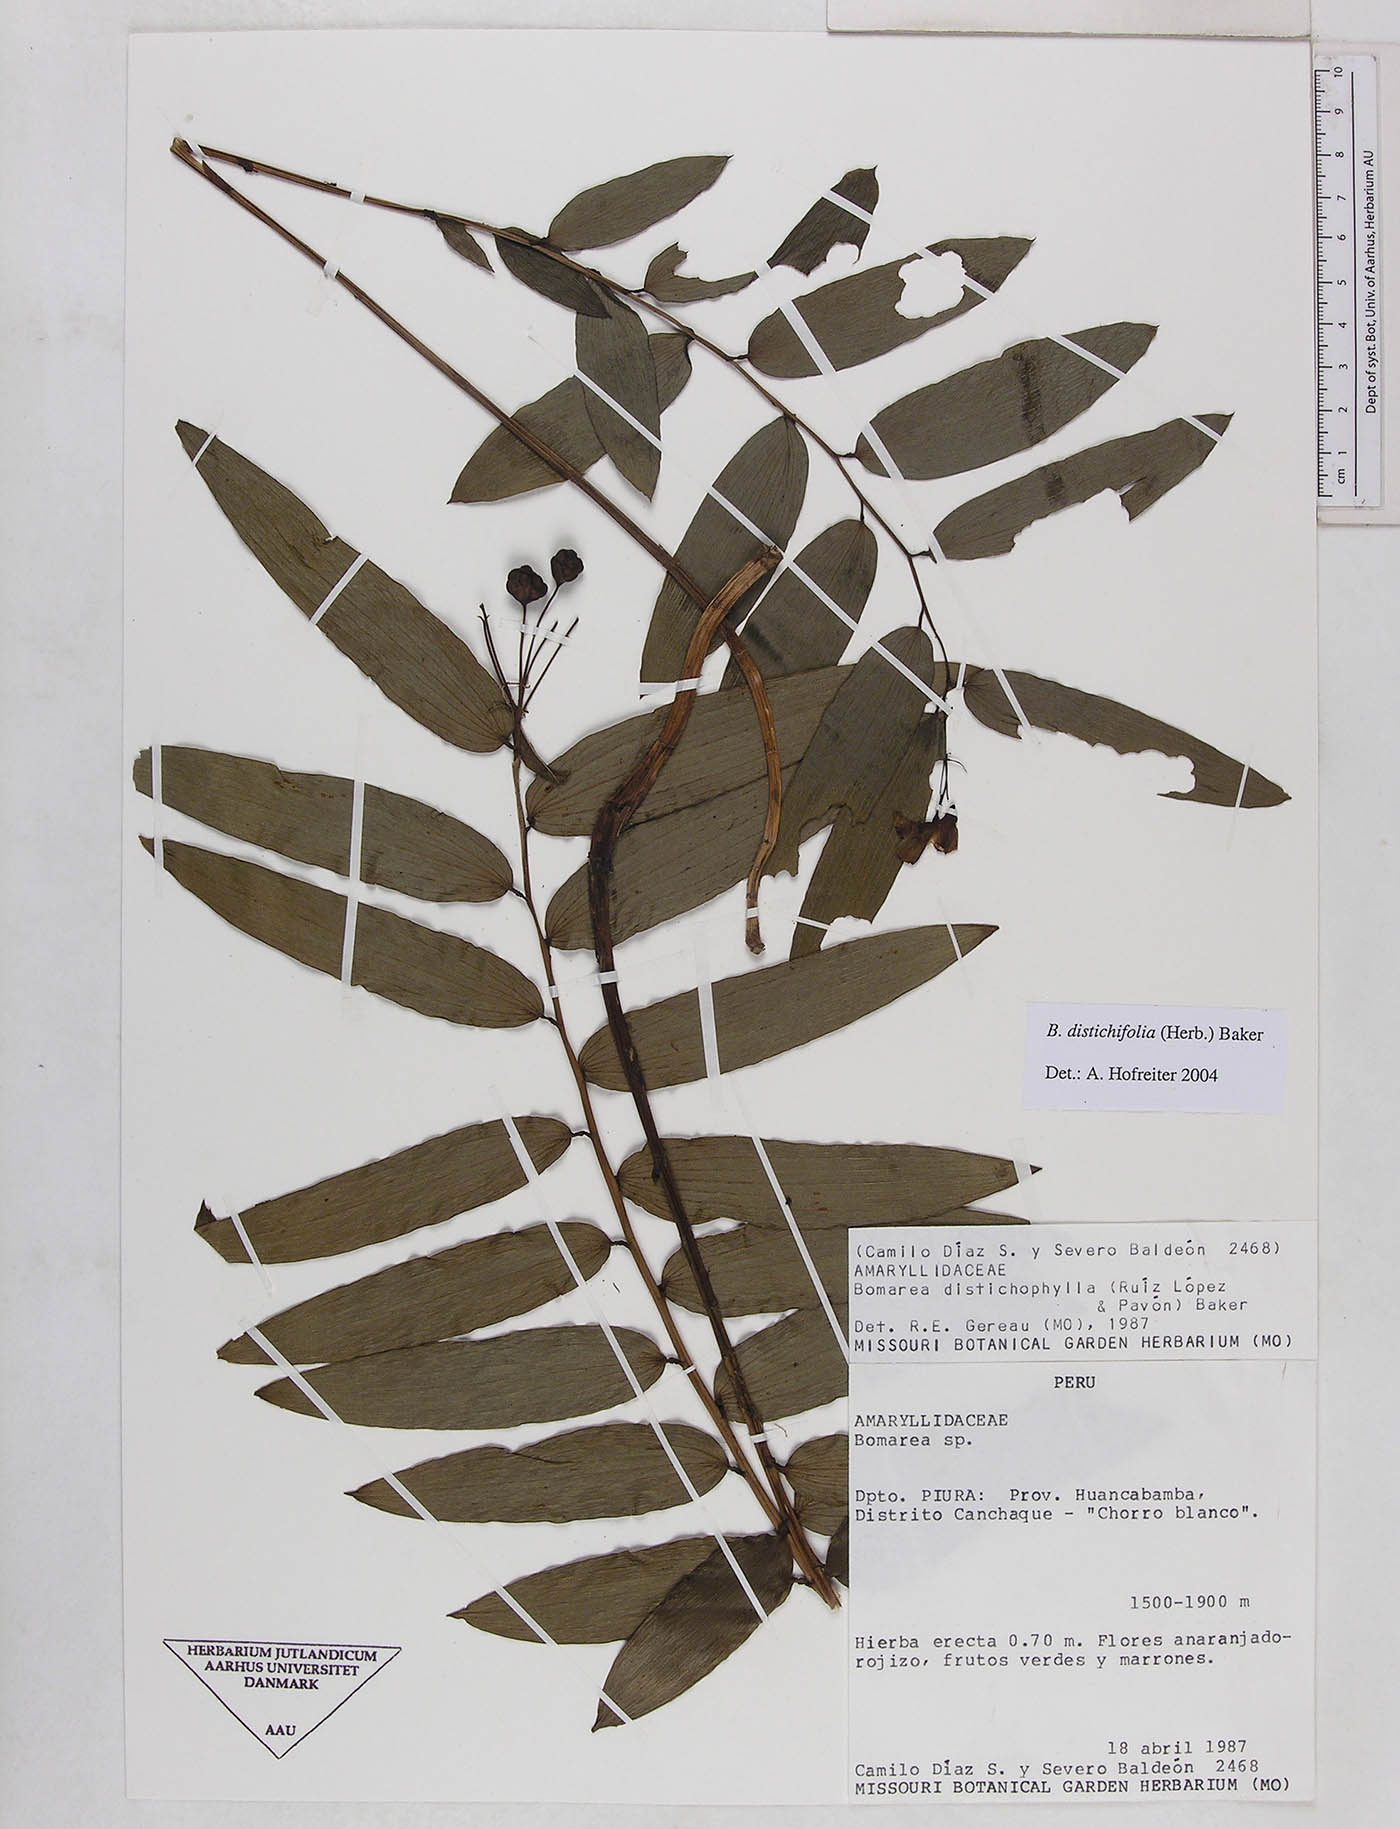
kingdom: Plantae
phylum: Tracheophyta
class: Liliopsida
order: Liliales
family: Alstroemeriaceae
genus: Bomarea
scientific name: Bomarea distichifolia
